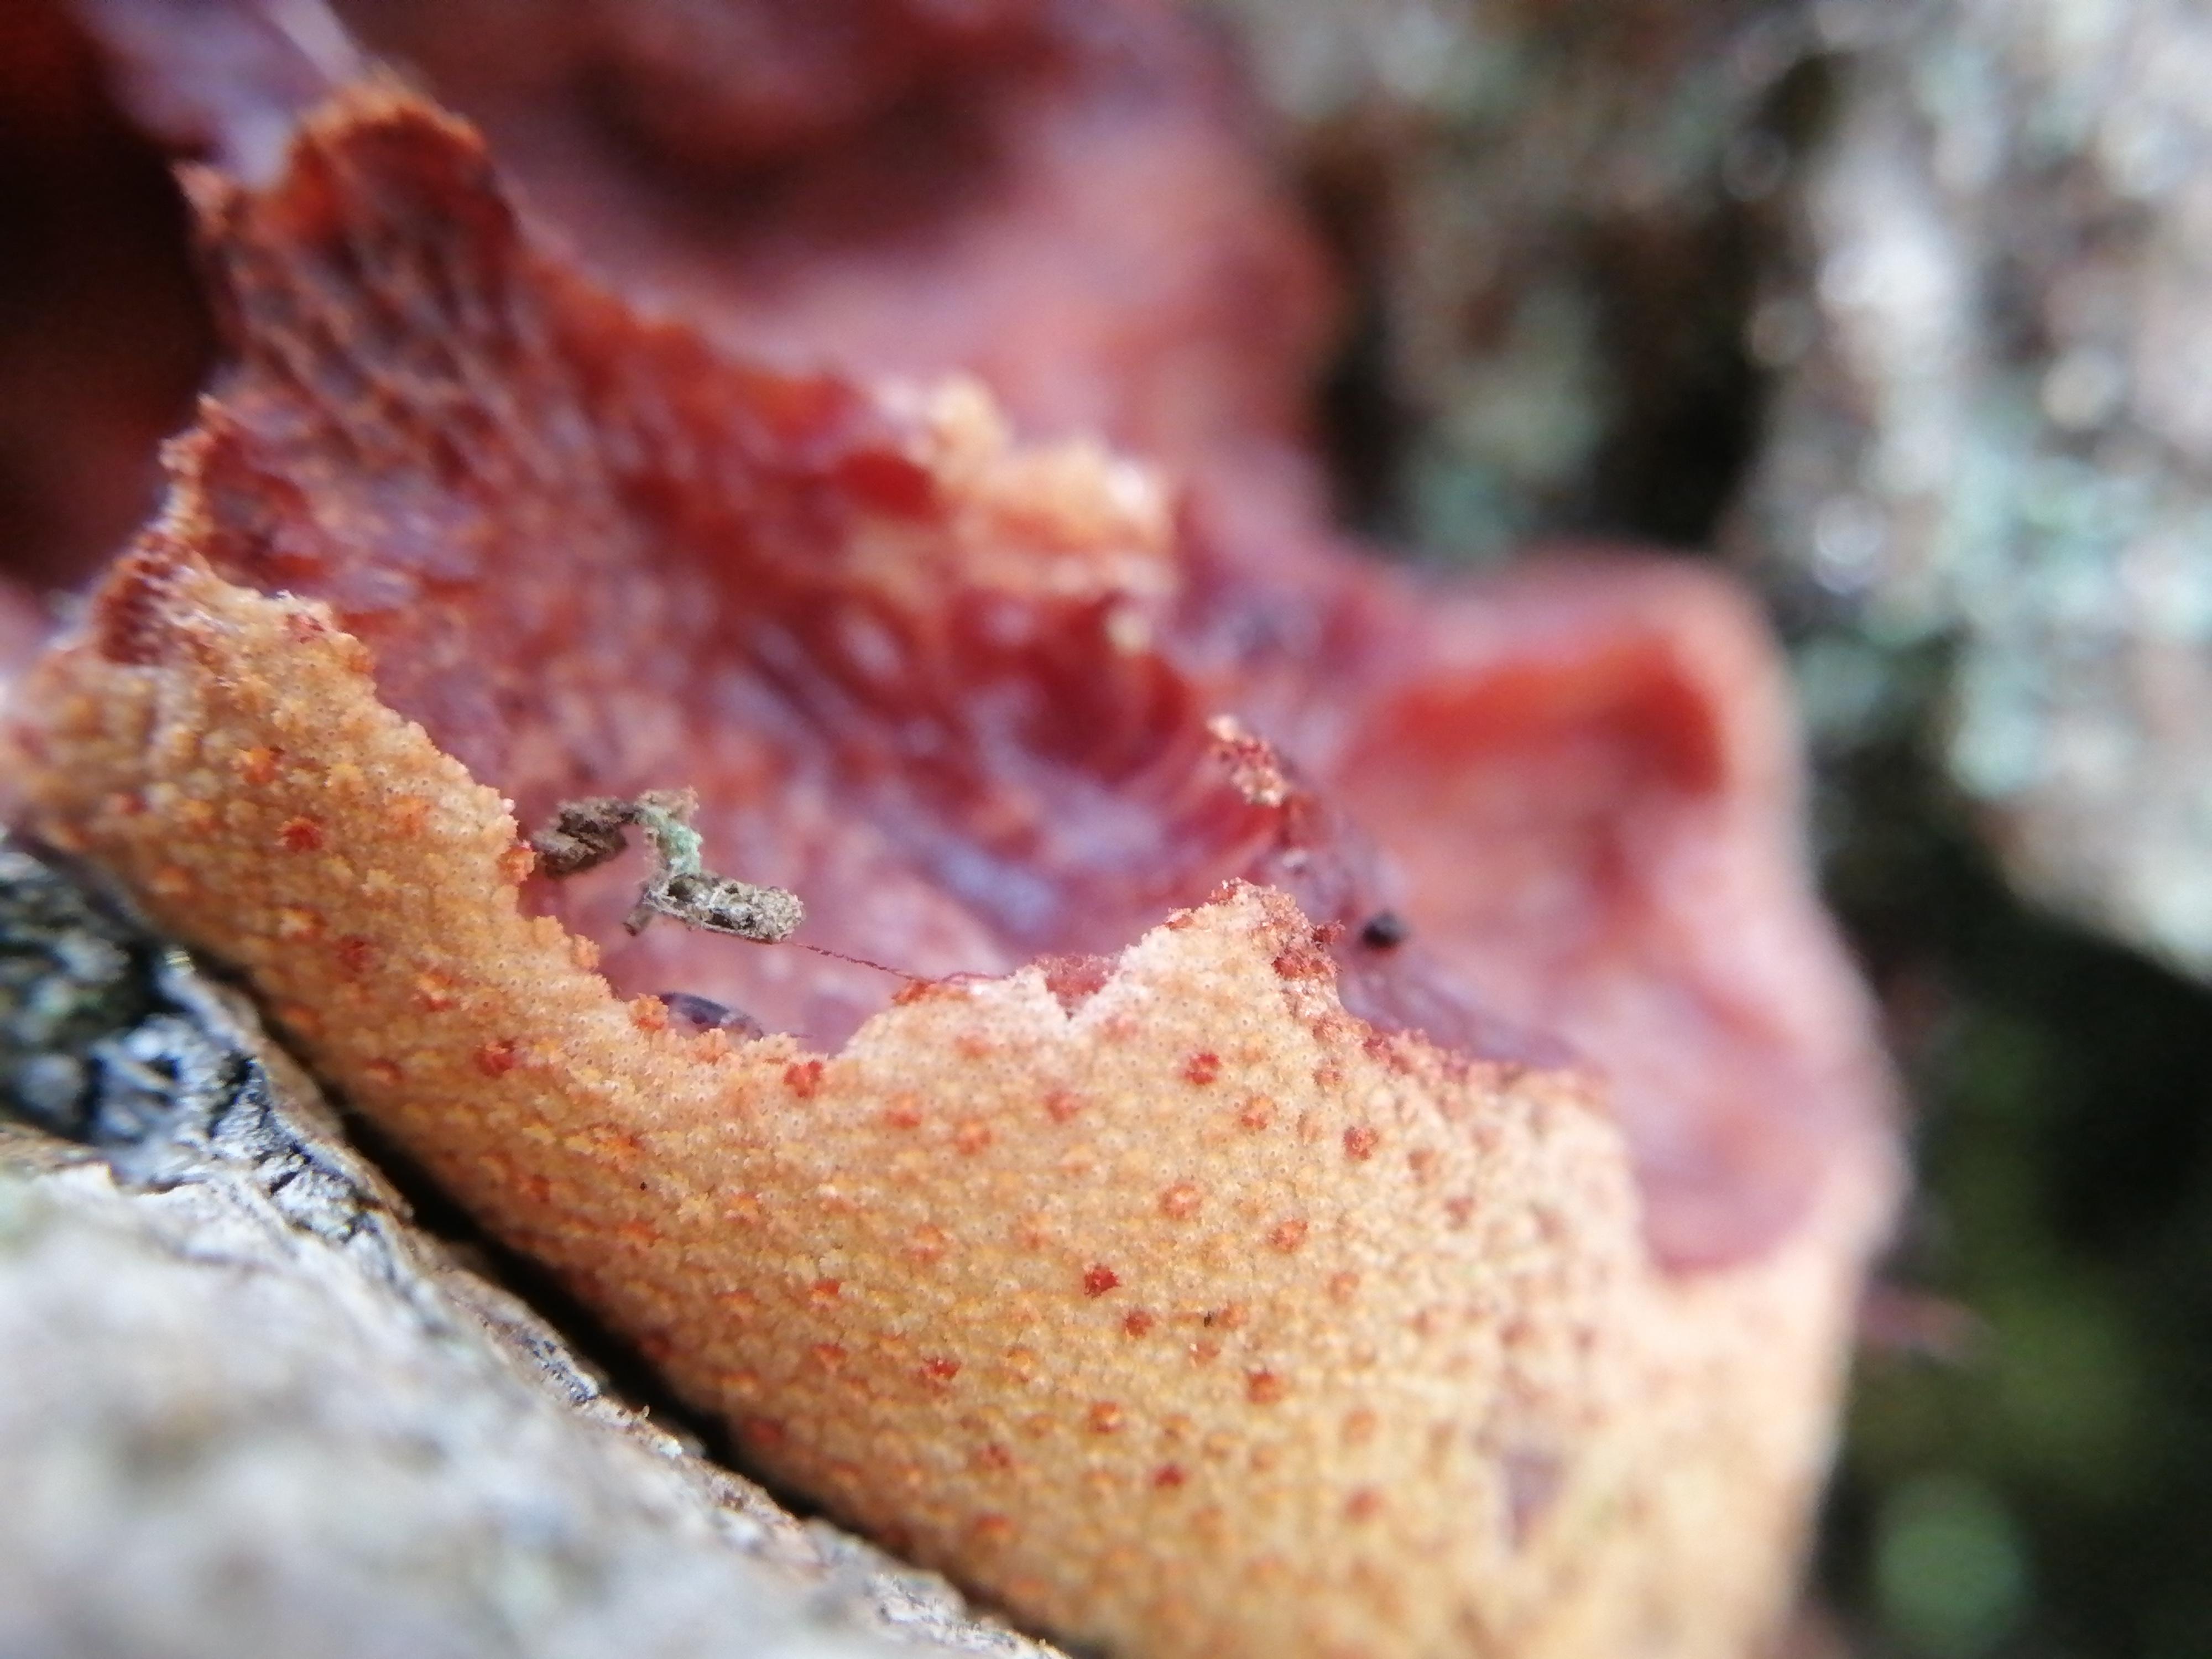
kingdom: Fungi
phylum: Basidiomycota
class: Agaricomycetes
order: Agaricales
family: Fistulinaceae
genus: Fistulina
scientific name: Fistulina hepatica
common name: oksetunge
